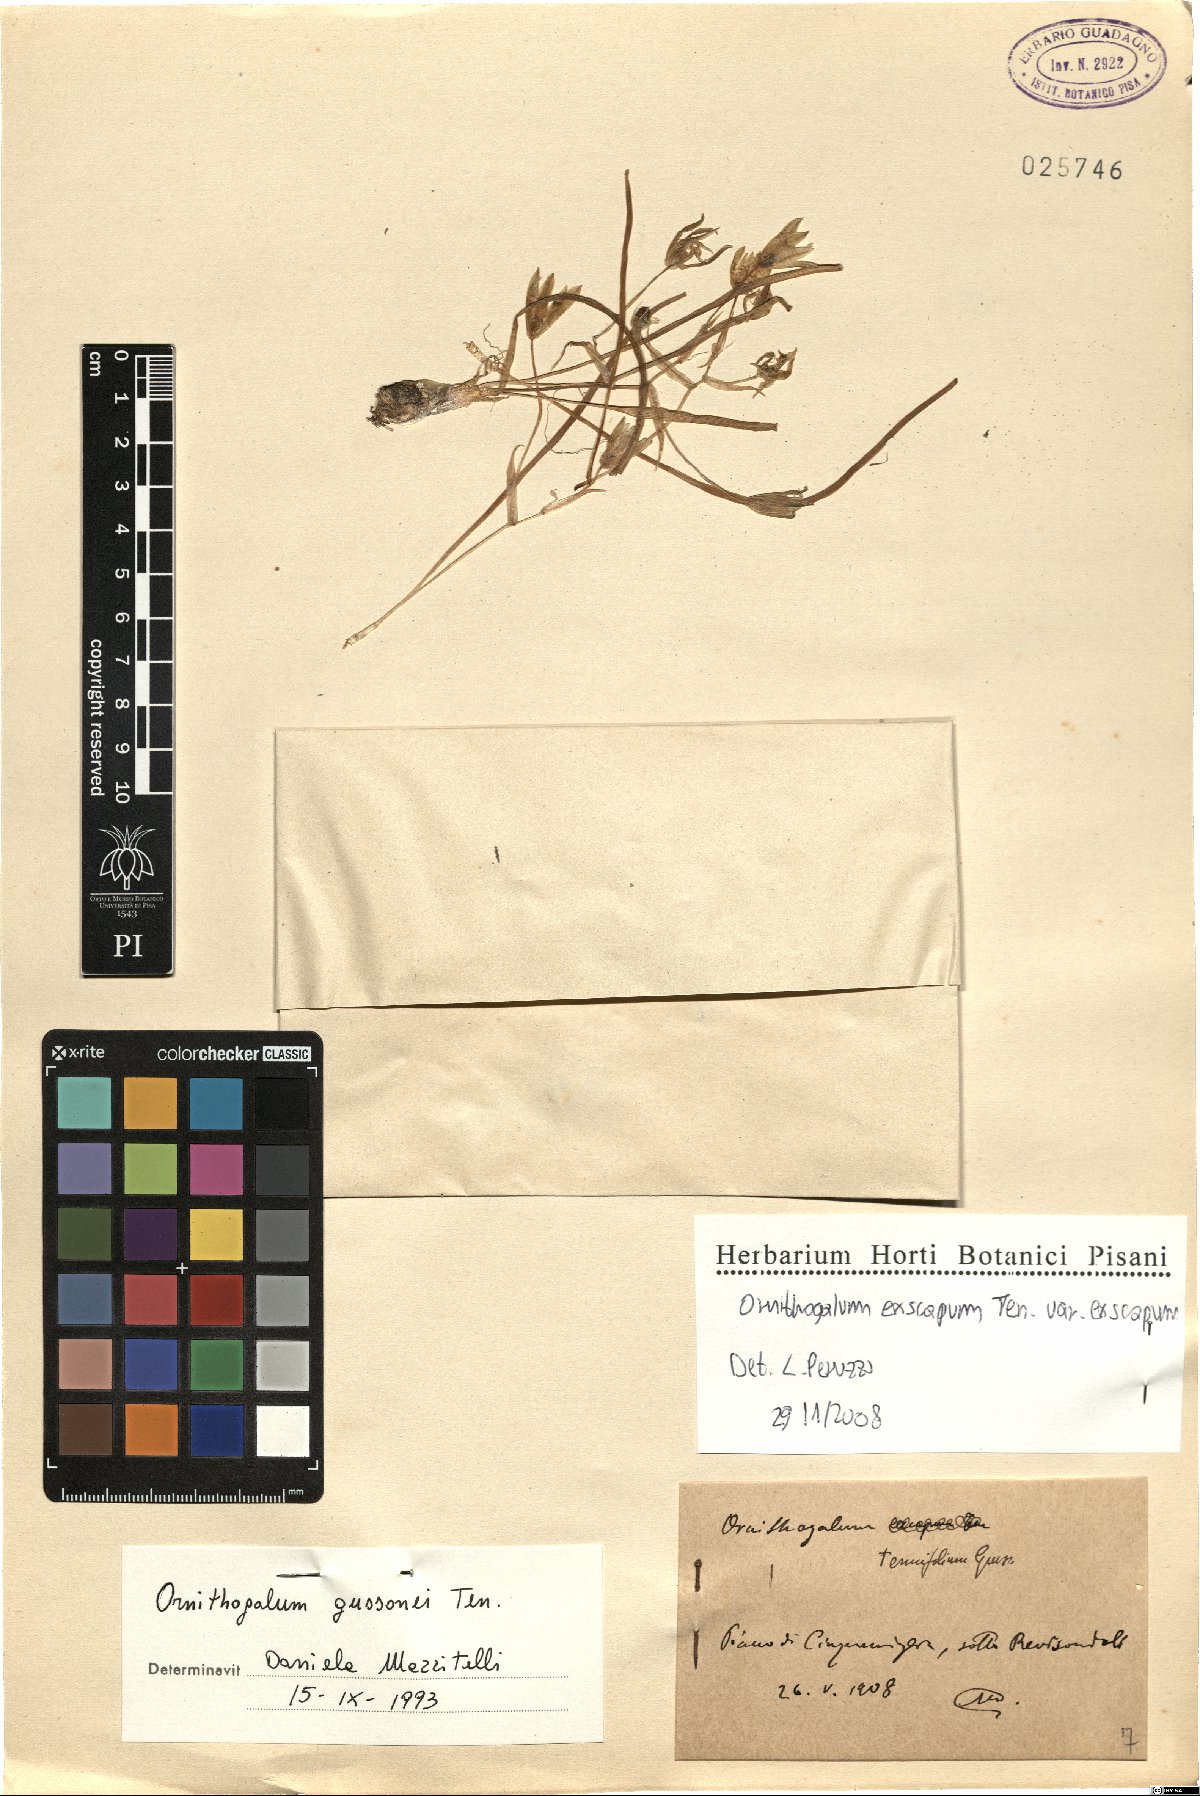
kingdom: Plantae
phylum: Tracheophyta
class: Liliopsida
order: Asparagales
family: Asparagaceae
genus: Ornithogalum
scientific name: Ornithogalum exscapum
